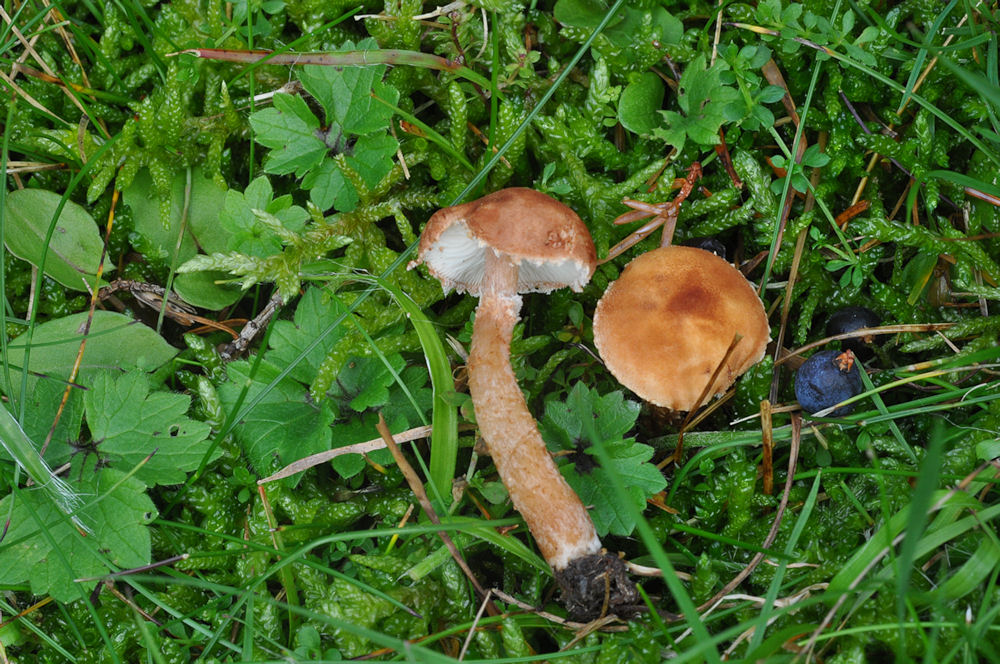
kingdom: Fungi
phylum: Basidiomycota
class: Agaricomycetes
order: Agaricales
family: Agaricaceae
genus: Cystodermella
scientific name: Cystodermella granulosa
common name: kliddet grynhat
